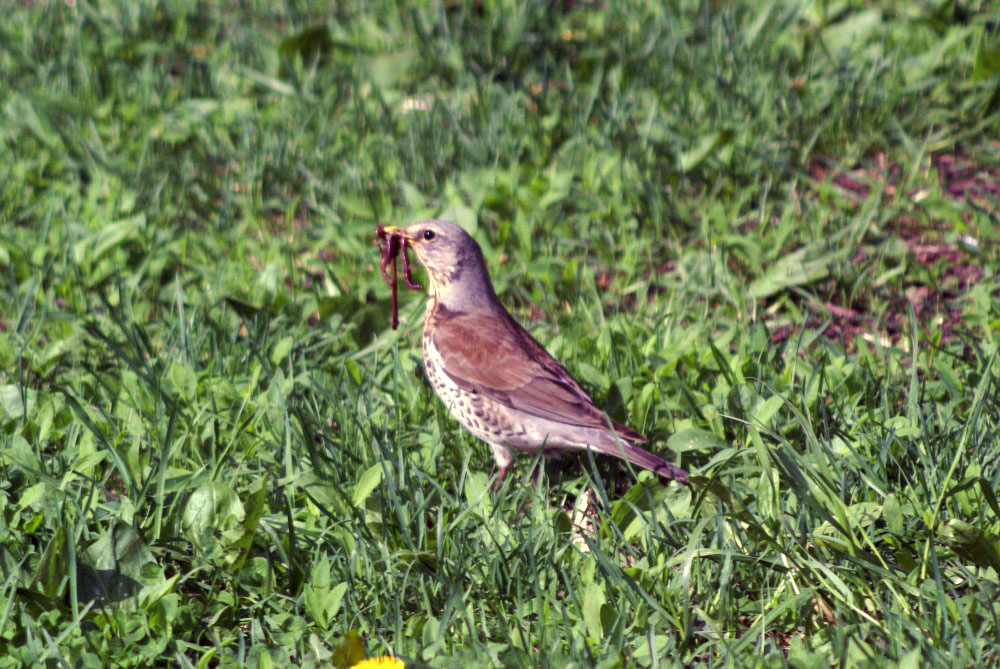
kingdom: Animalia
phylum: Chordata
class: Aves
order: Passeriformes
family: Turdidae
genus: Turdus
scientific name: Turdus pilaris
